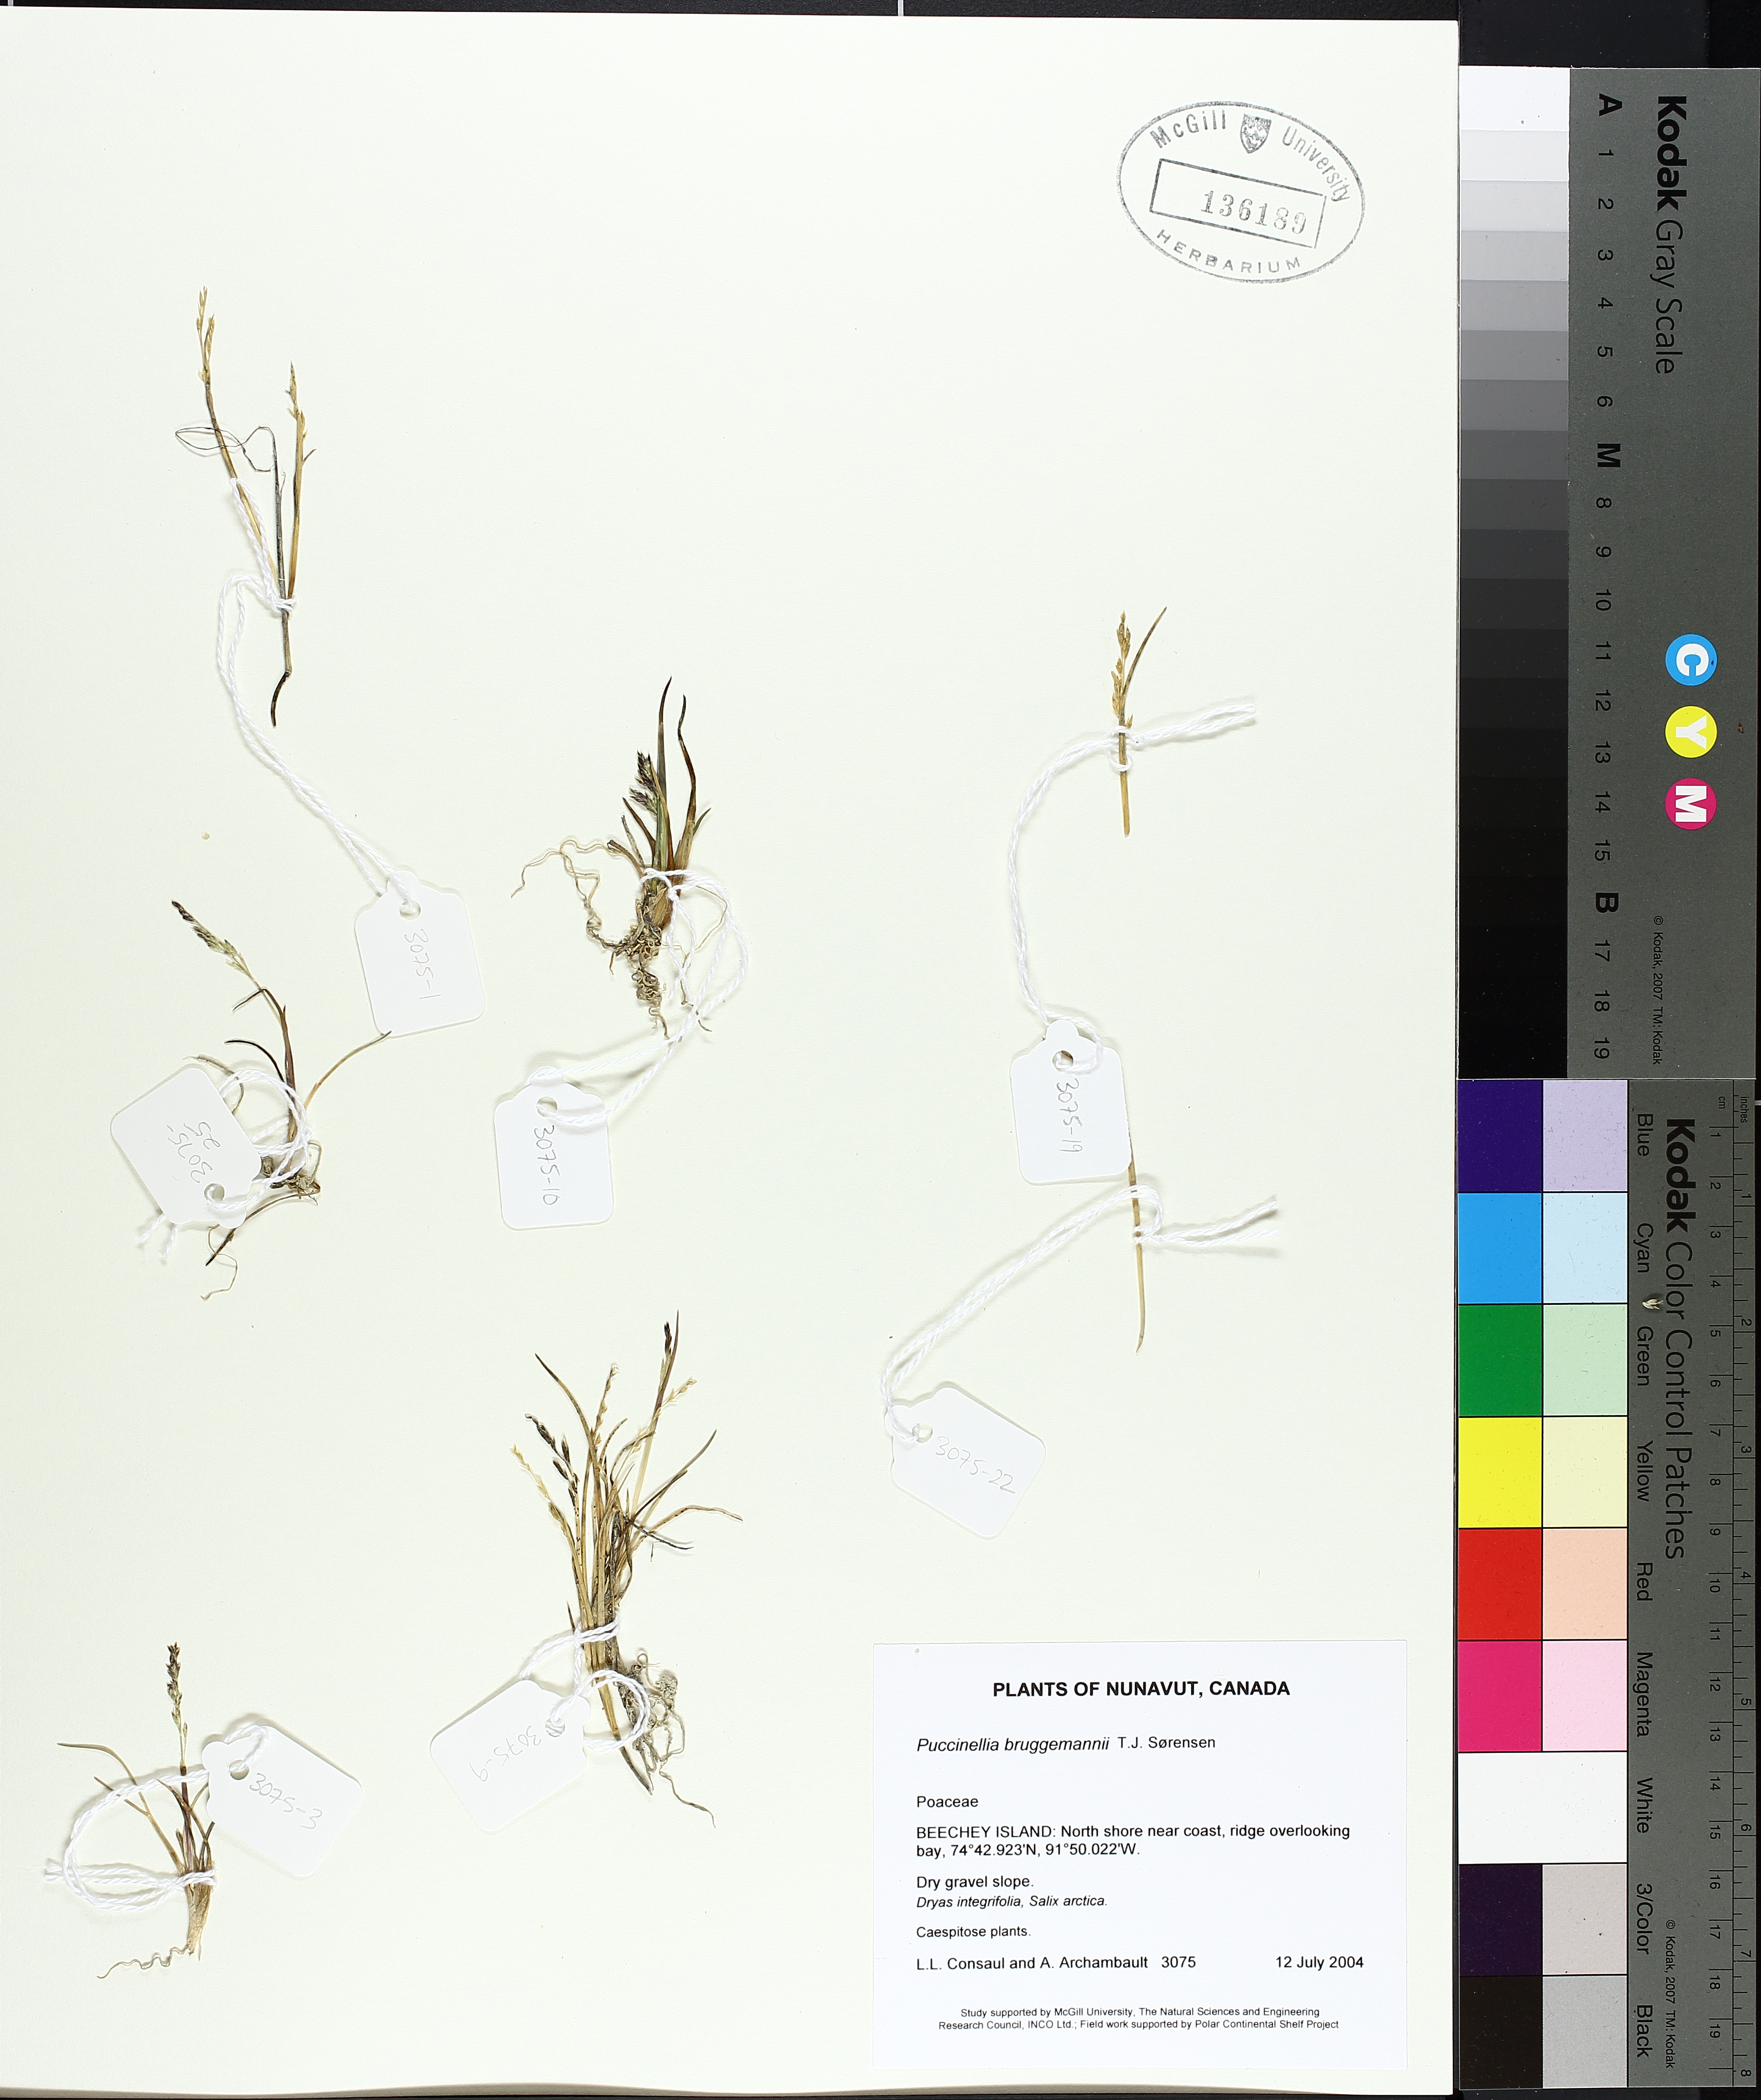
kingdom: Plantae
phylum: Tracheophyta
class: Liliopsida
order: Poales
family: Poaceae
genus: Puccinellia
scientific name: Puccinellia bruggemannii
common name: Bruggemann's alkaligrass
